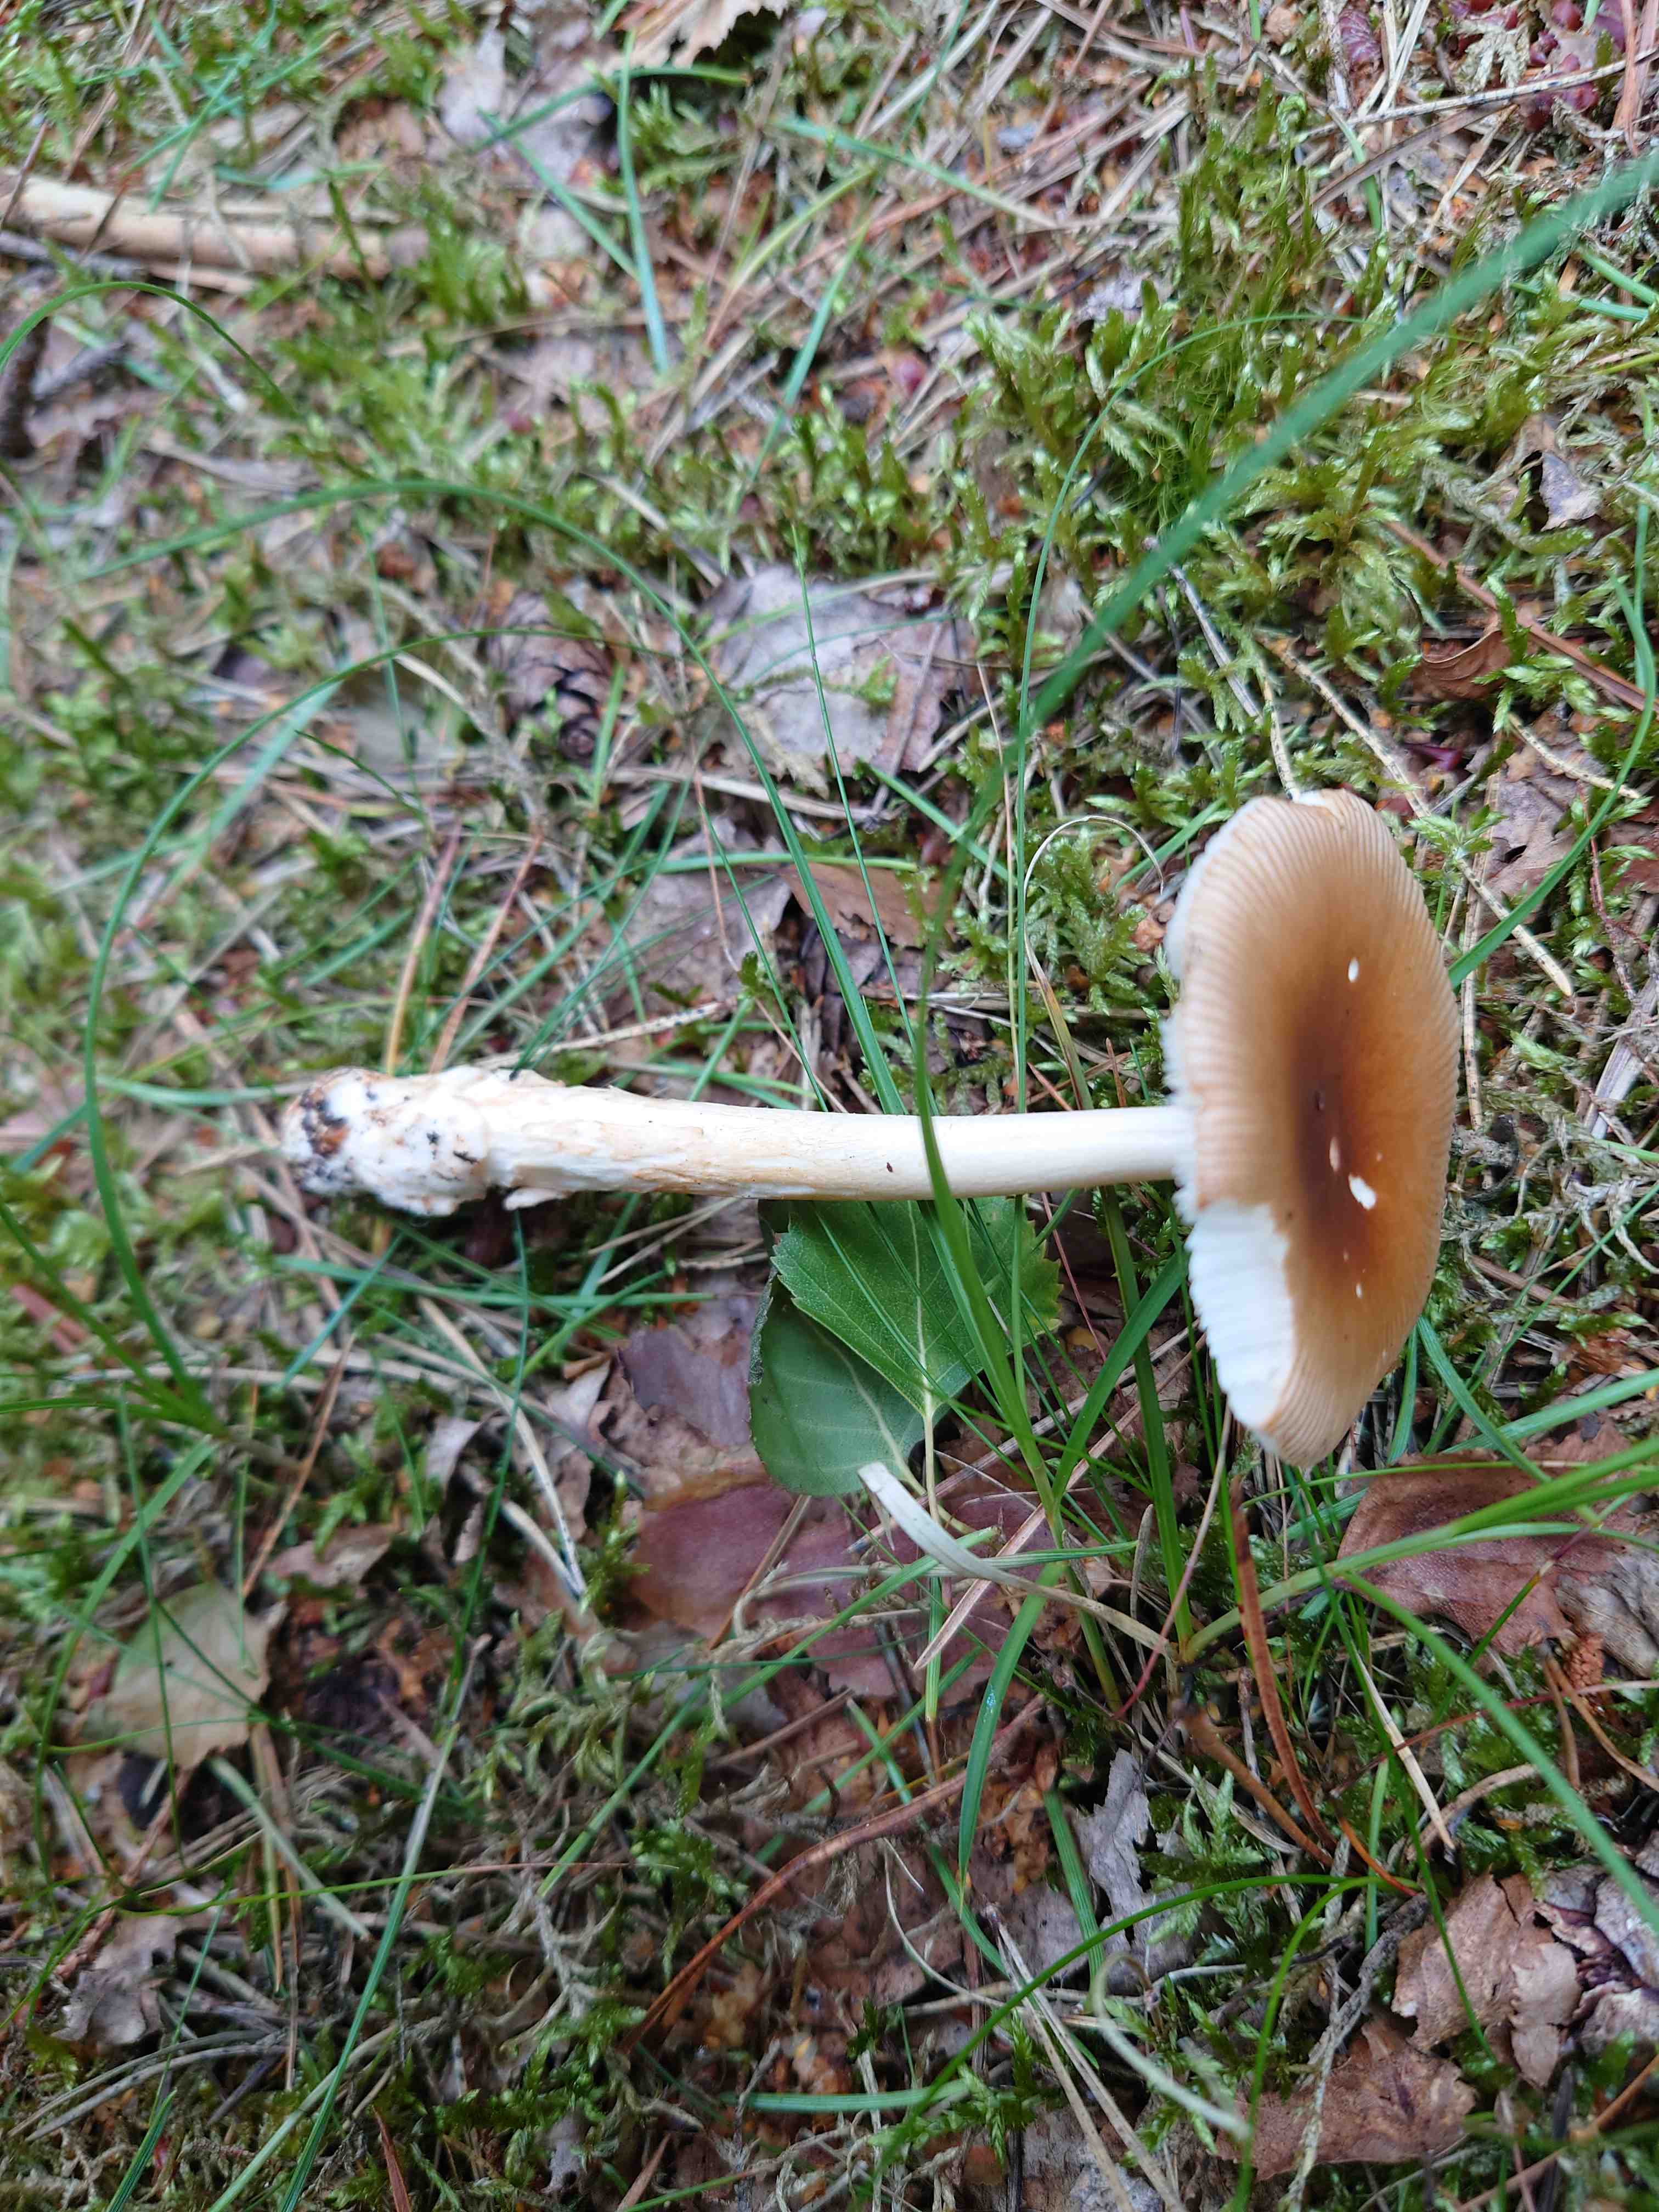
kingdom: Fungi
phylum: Basidiomycota
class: Agaricomycetes
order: Agaricales
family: Amanitaceae
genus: Amanita
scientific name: Amanita fulva
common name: brun kam-fluesvamp
